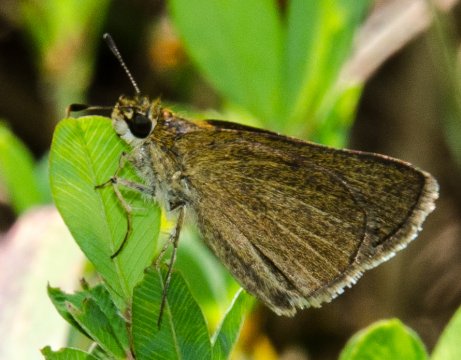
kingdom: Animalia
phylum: Arthropoda
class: Insecta
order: Lepidoptera
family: Hesperiidae
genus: Nastra
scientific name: Nastra lherminier
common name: Swarthy Skipper
